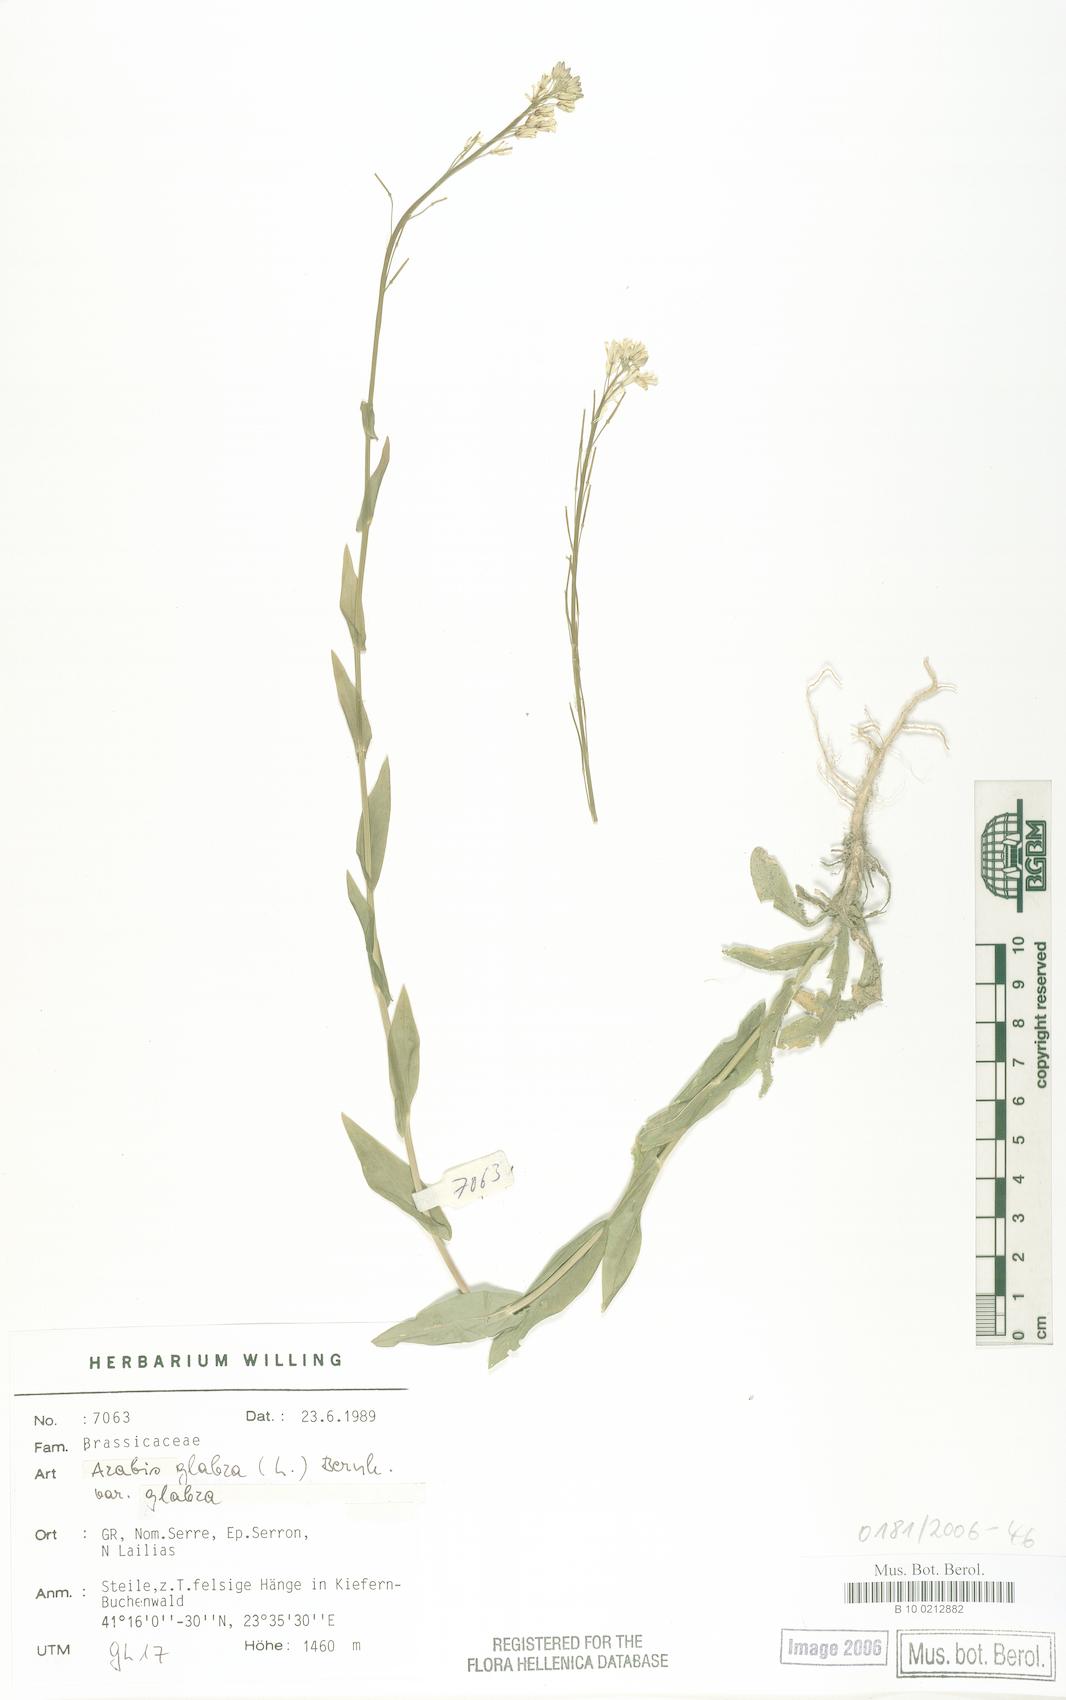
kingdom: Plantae
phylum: Tracheophyta
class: Magnoliopsida
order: Brassicales
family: Brassicaceae
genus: Turritis
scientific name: Turritis glabra
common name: Tower rockcress
